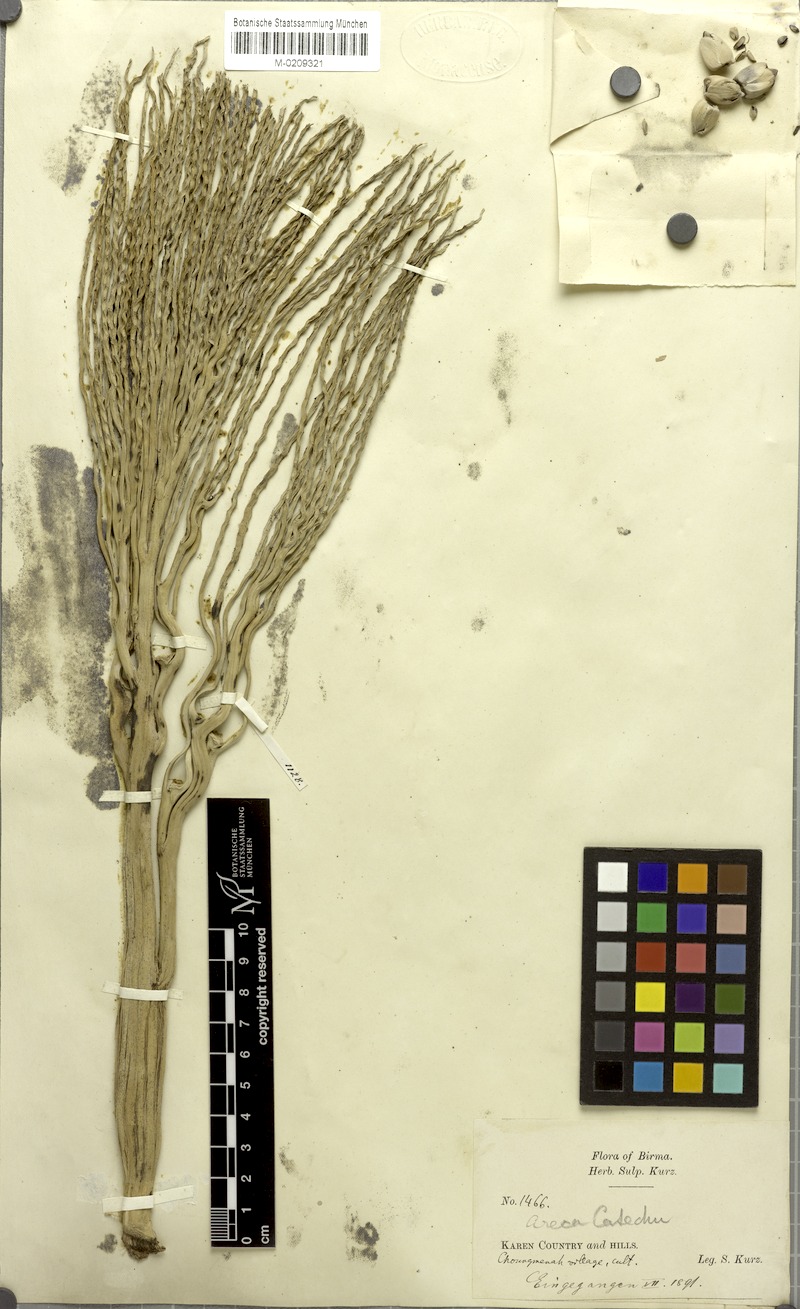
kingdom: Plantae
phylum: Tracheophyta
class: Liliopsida
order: Arecales
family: Arecaceae
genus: Areca
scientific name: Areca catechu
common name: Indian-nut
